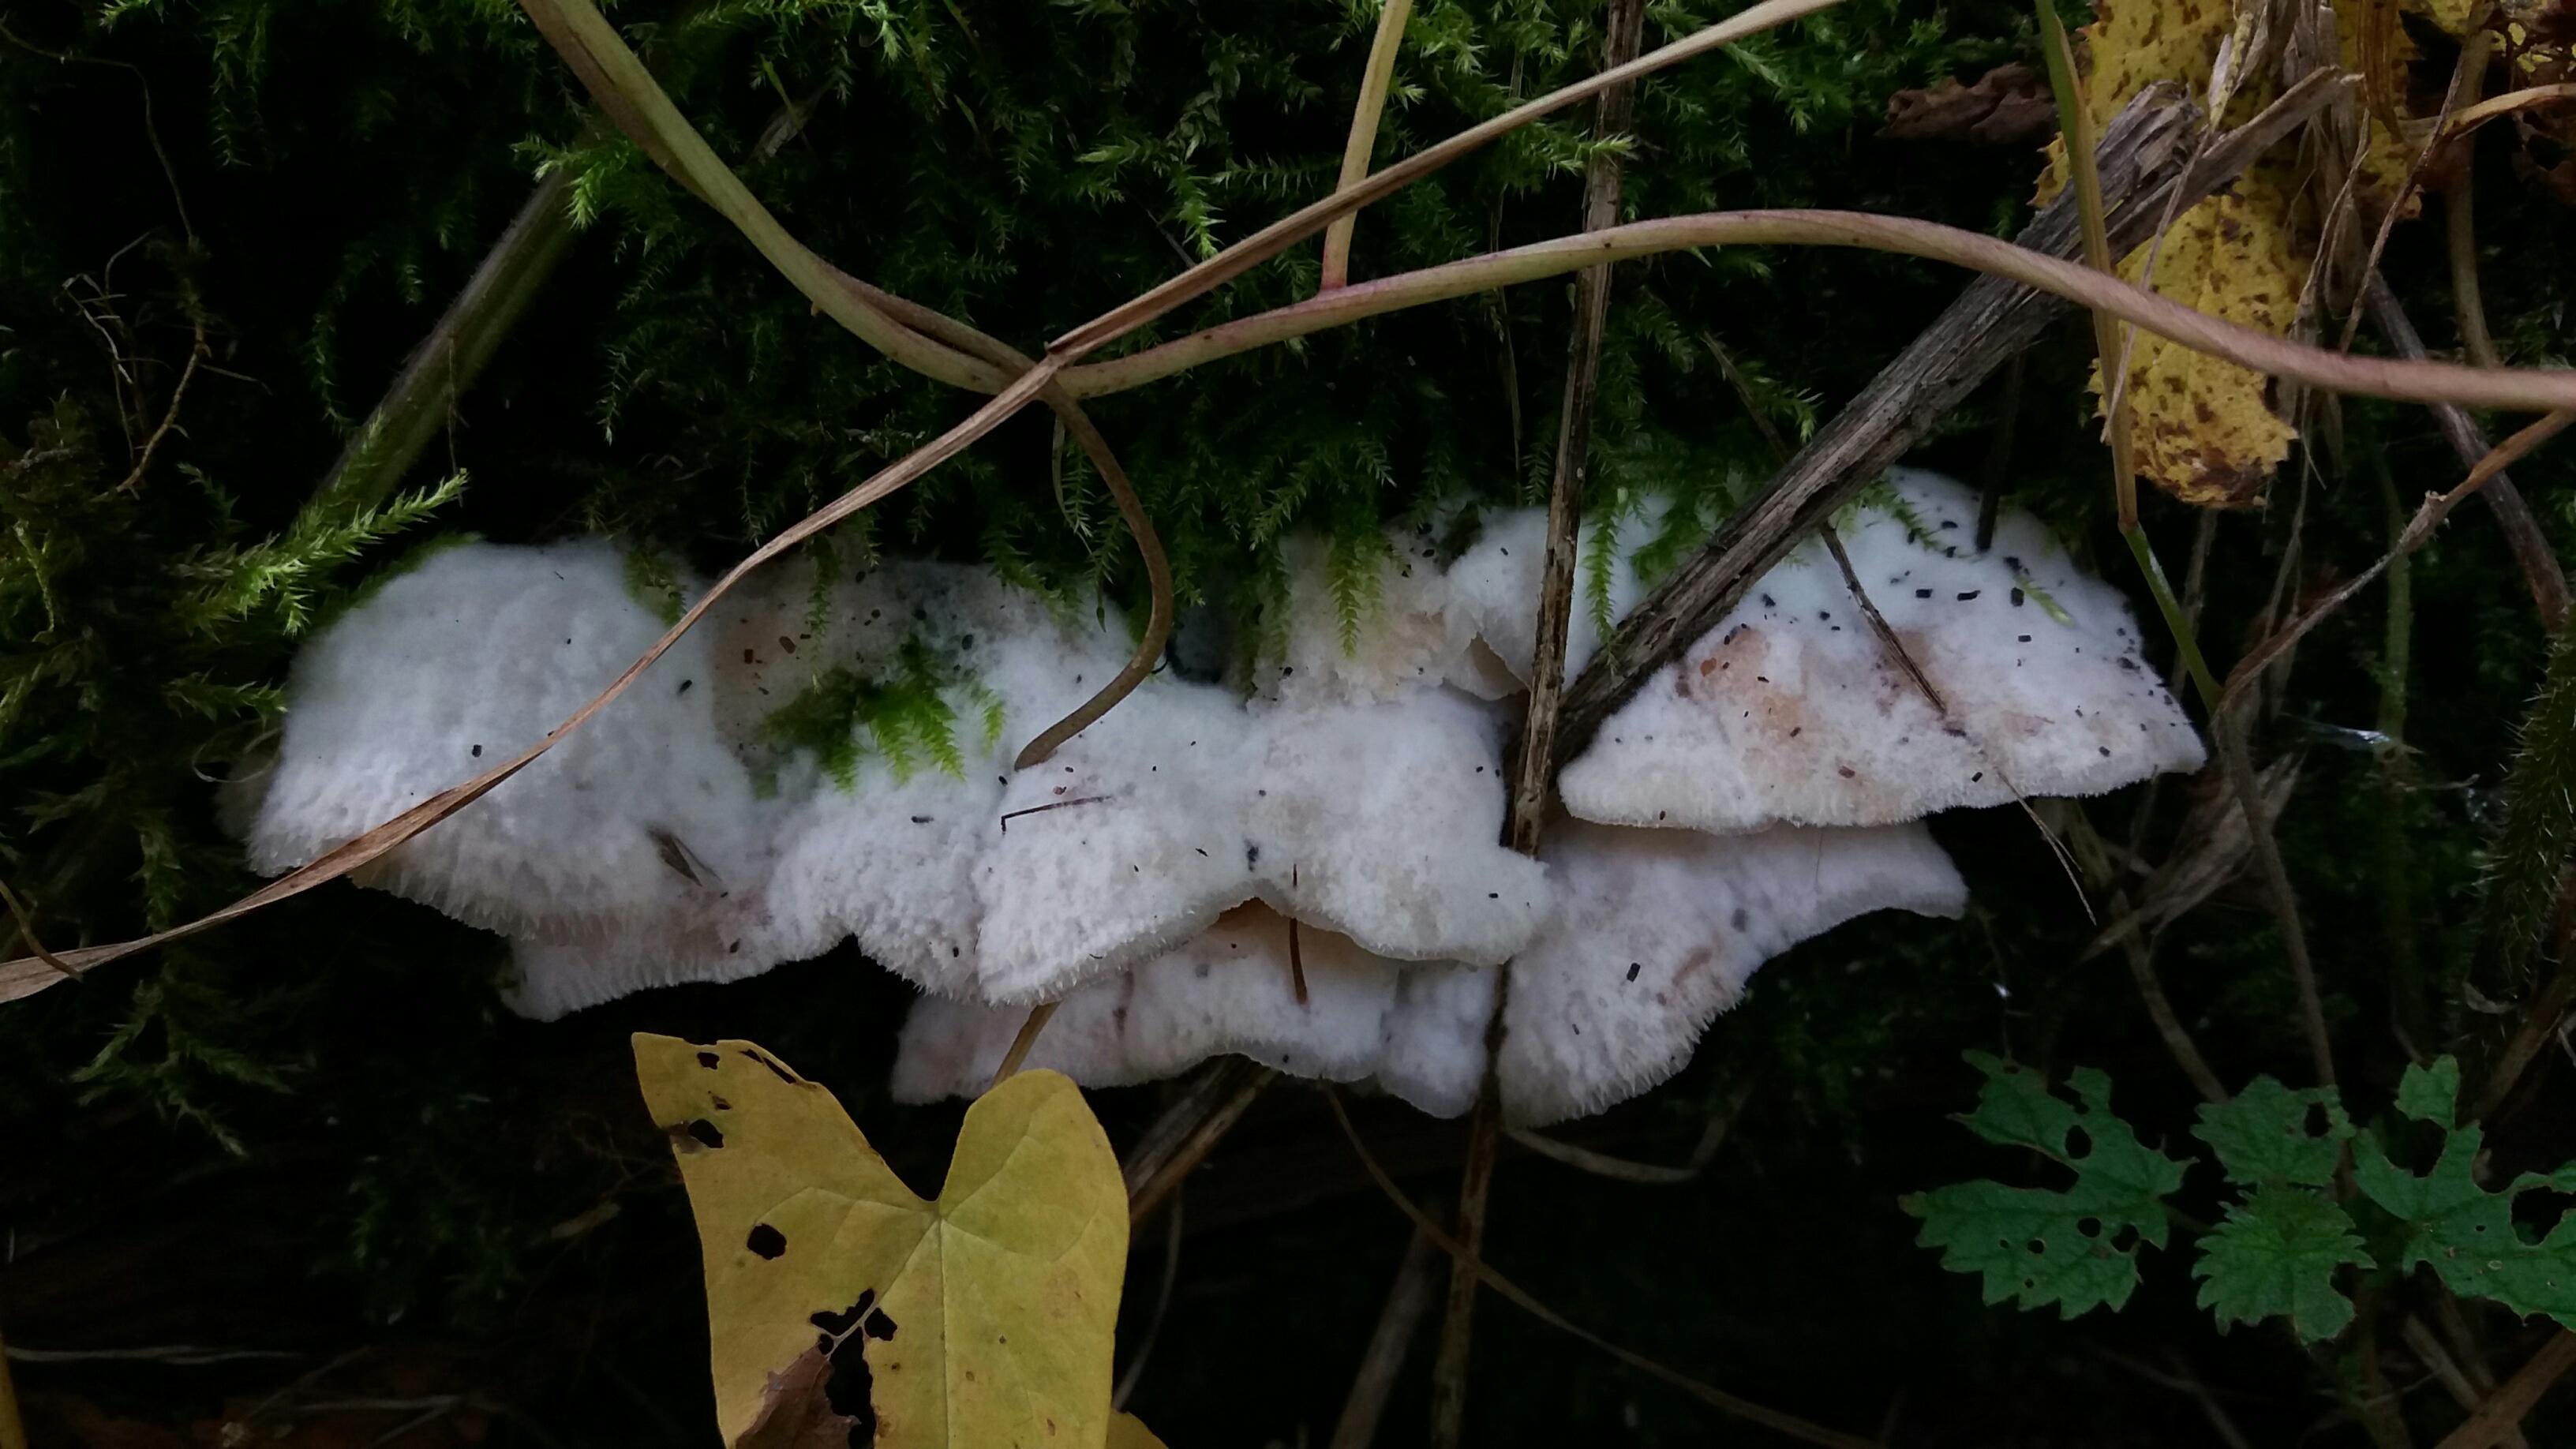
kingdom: Fungi
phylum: Basidiomycota
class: Agaricomycetes
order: Polyporales
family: Meruliaceae
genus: Phlebia
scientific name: Phlebia tremellosa
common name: bævrende åresvamp
